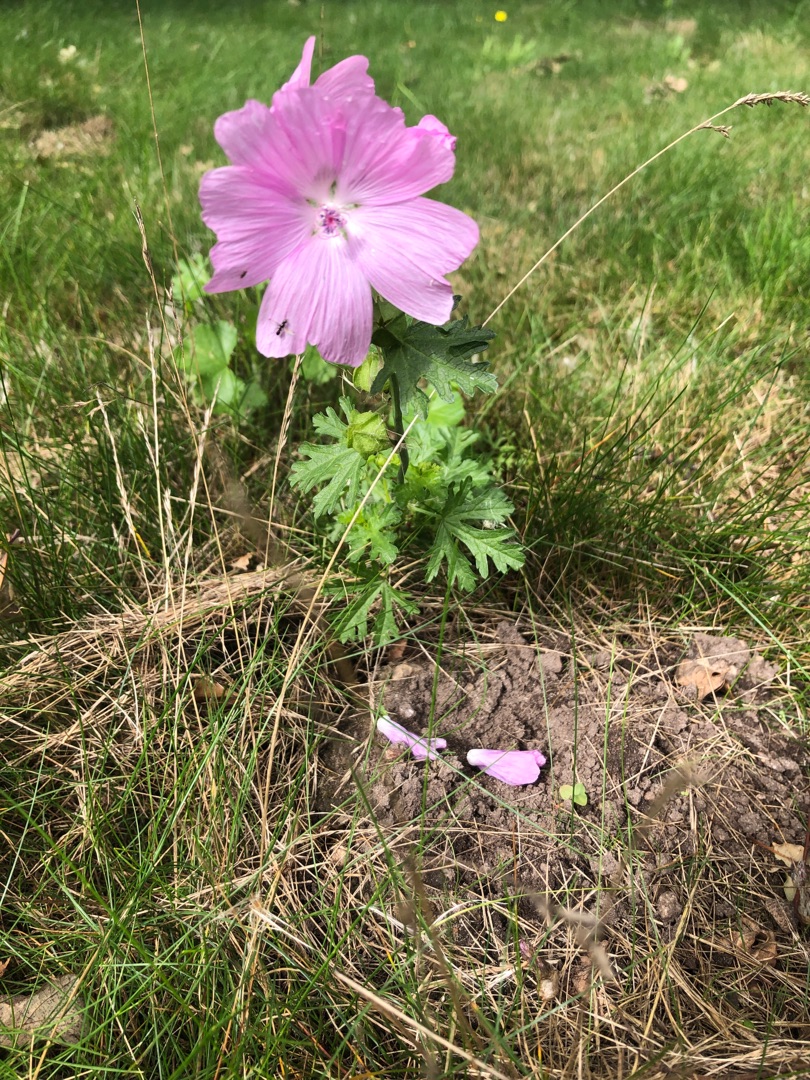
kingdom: Plantae
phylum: Tracheophyta
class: Magnoliopsida
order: Malvales
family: Malvaceae
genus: Malva
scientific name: Malva
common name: Katostslægten
